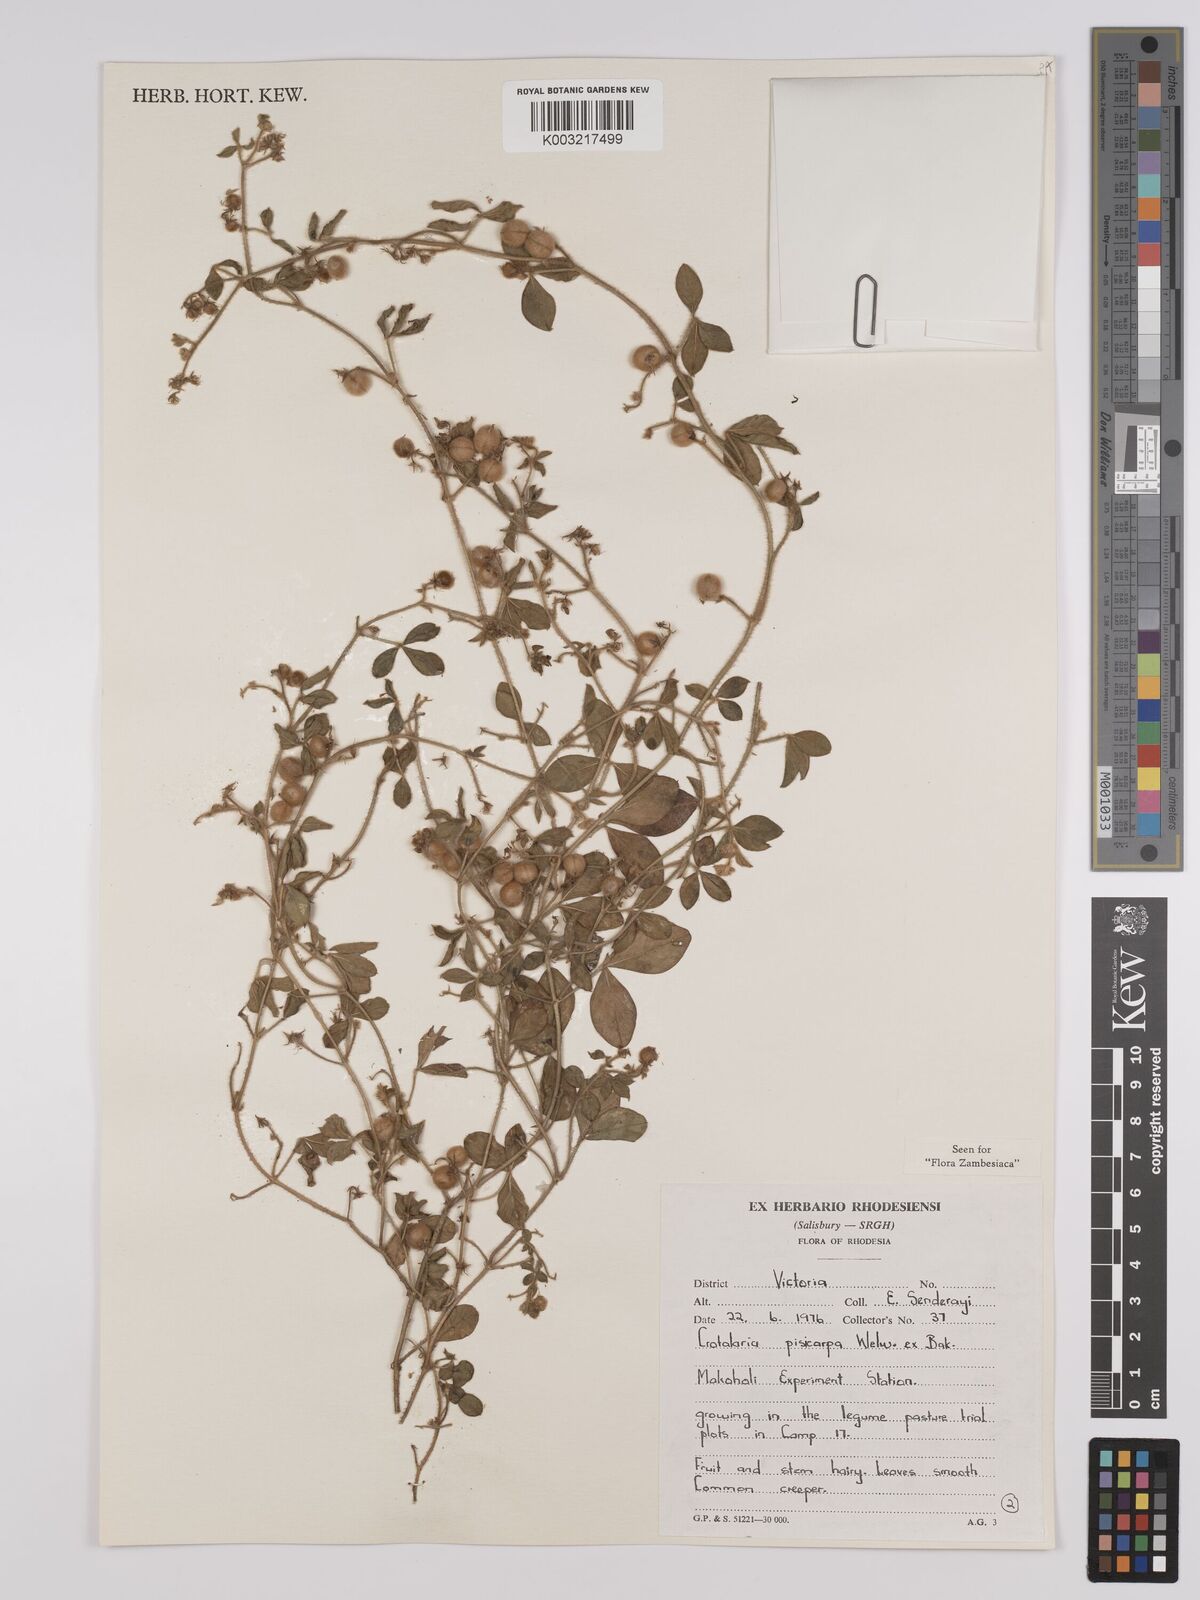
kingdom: Plantae
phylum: Tracheophyta
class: Magnoliopsida
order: Fabales
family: Fabaceae
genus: Crotalaria
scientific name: Crotalaria pisicarpa
